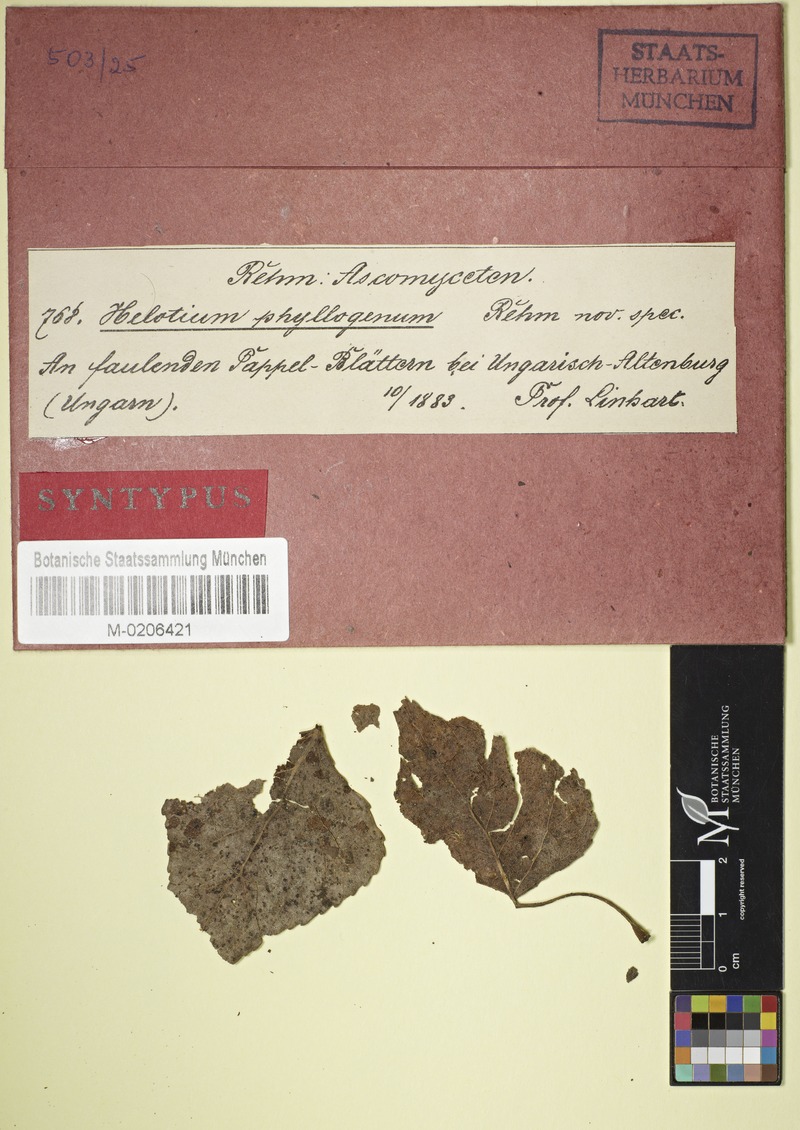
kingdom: Plantae
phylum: Tracheophyta
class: Magnoliopsida
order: Malpighiales
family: Salicaceae
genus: Populus
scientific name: Populus
